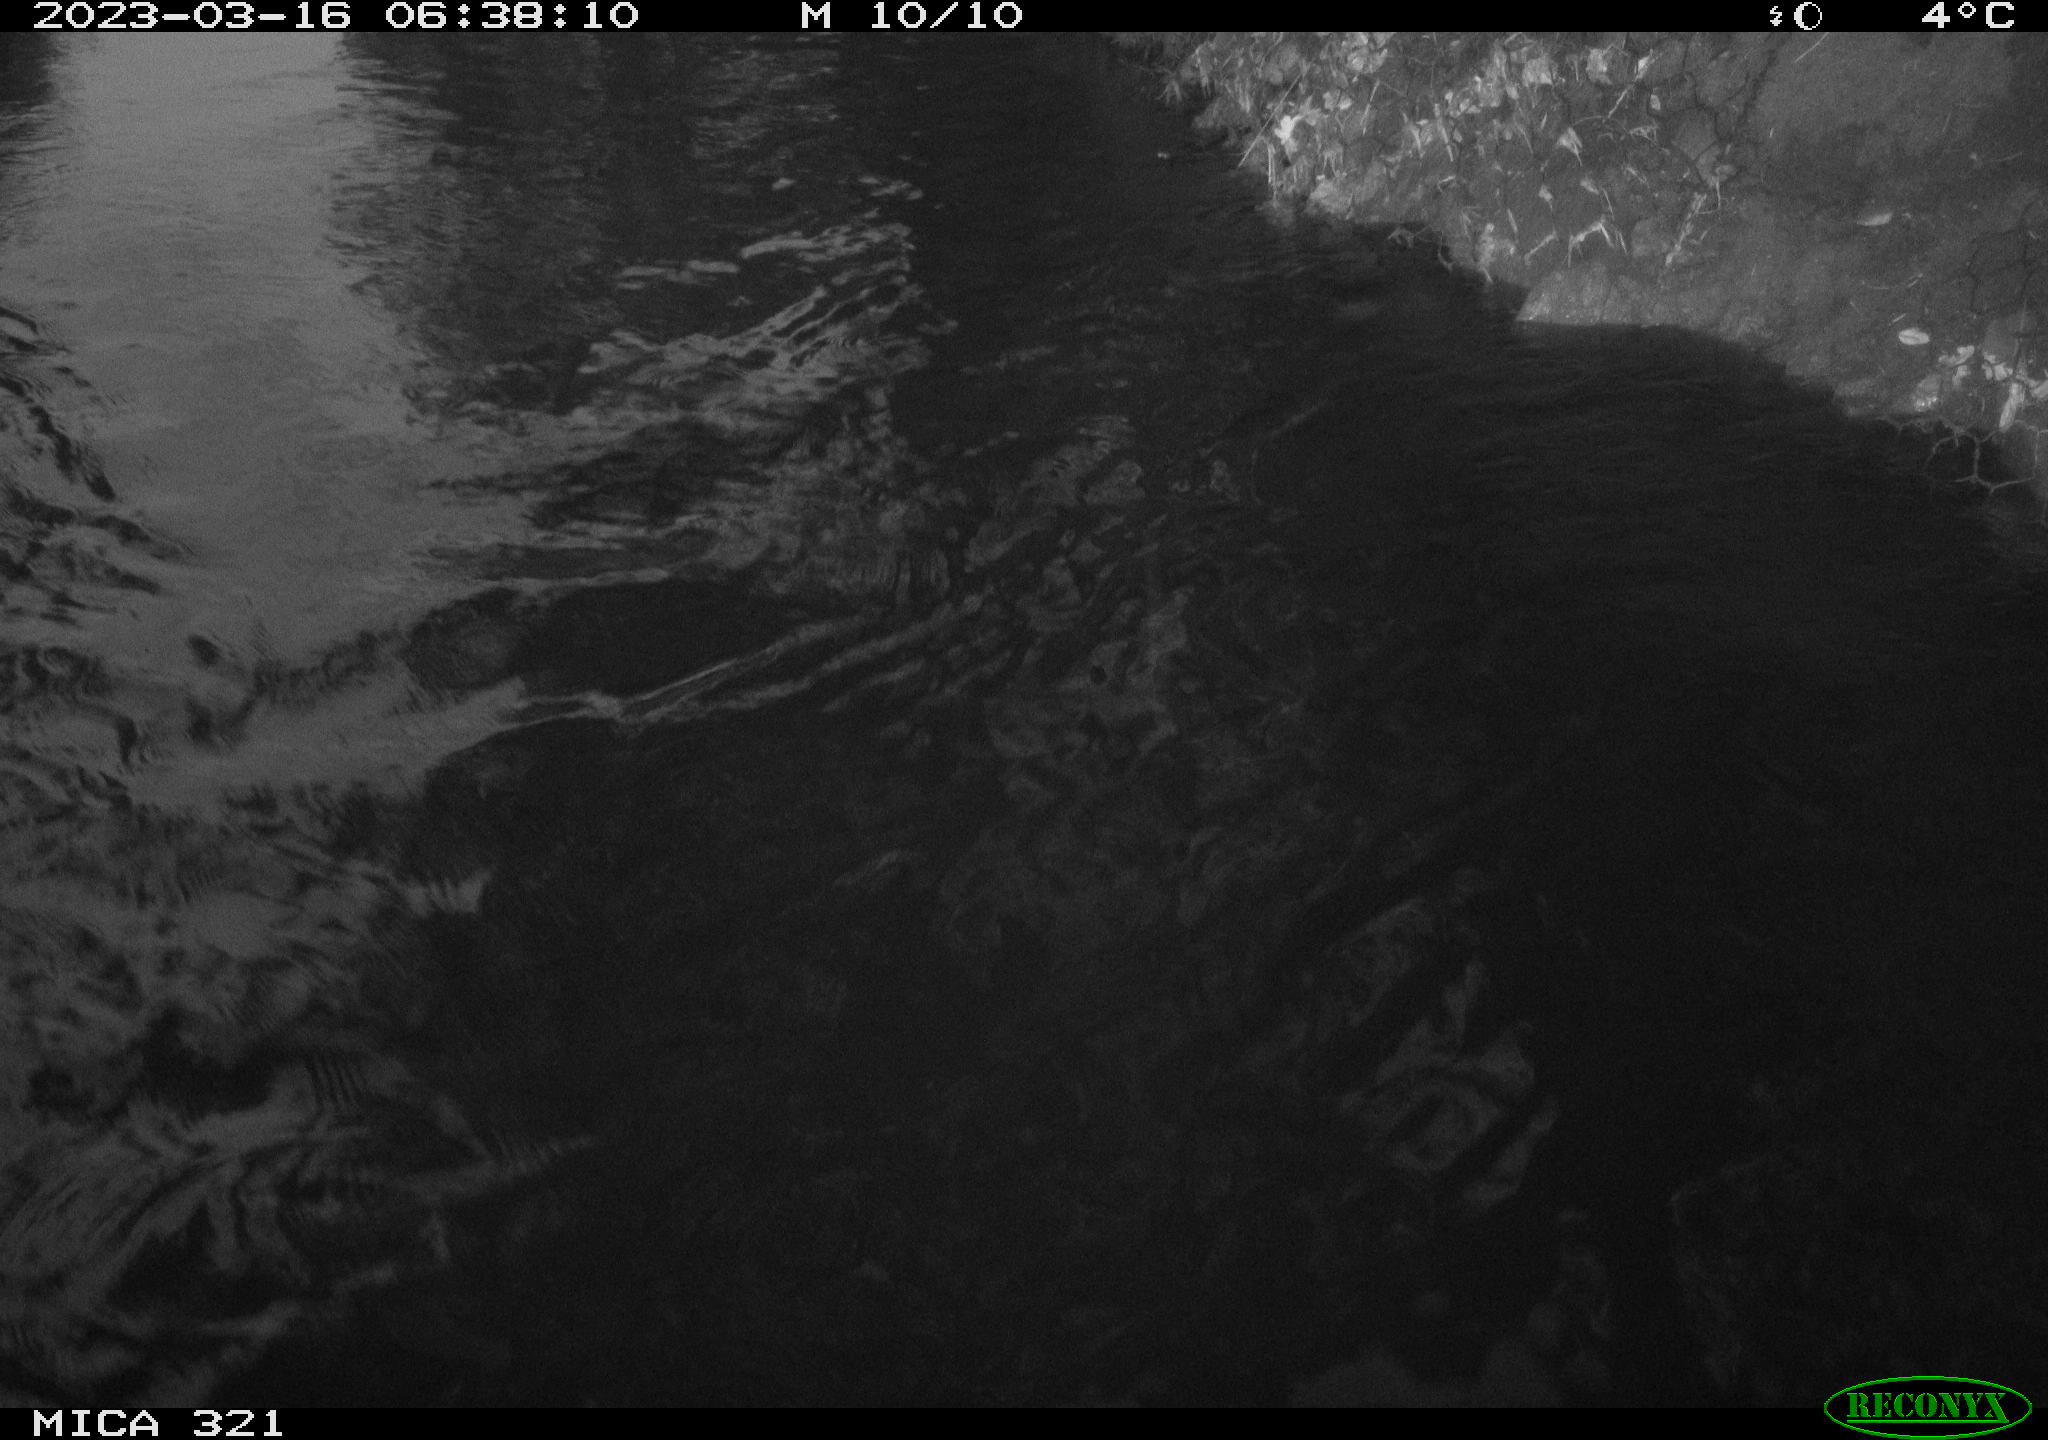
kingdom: Animalia
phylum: Chordata
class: Mammalia
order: Rodentia
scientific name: Rodentia
